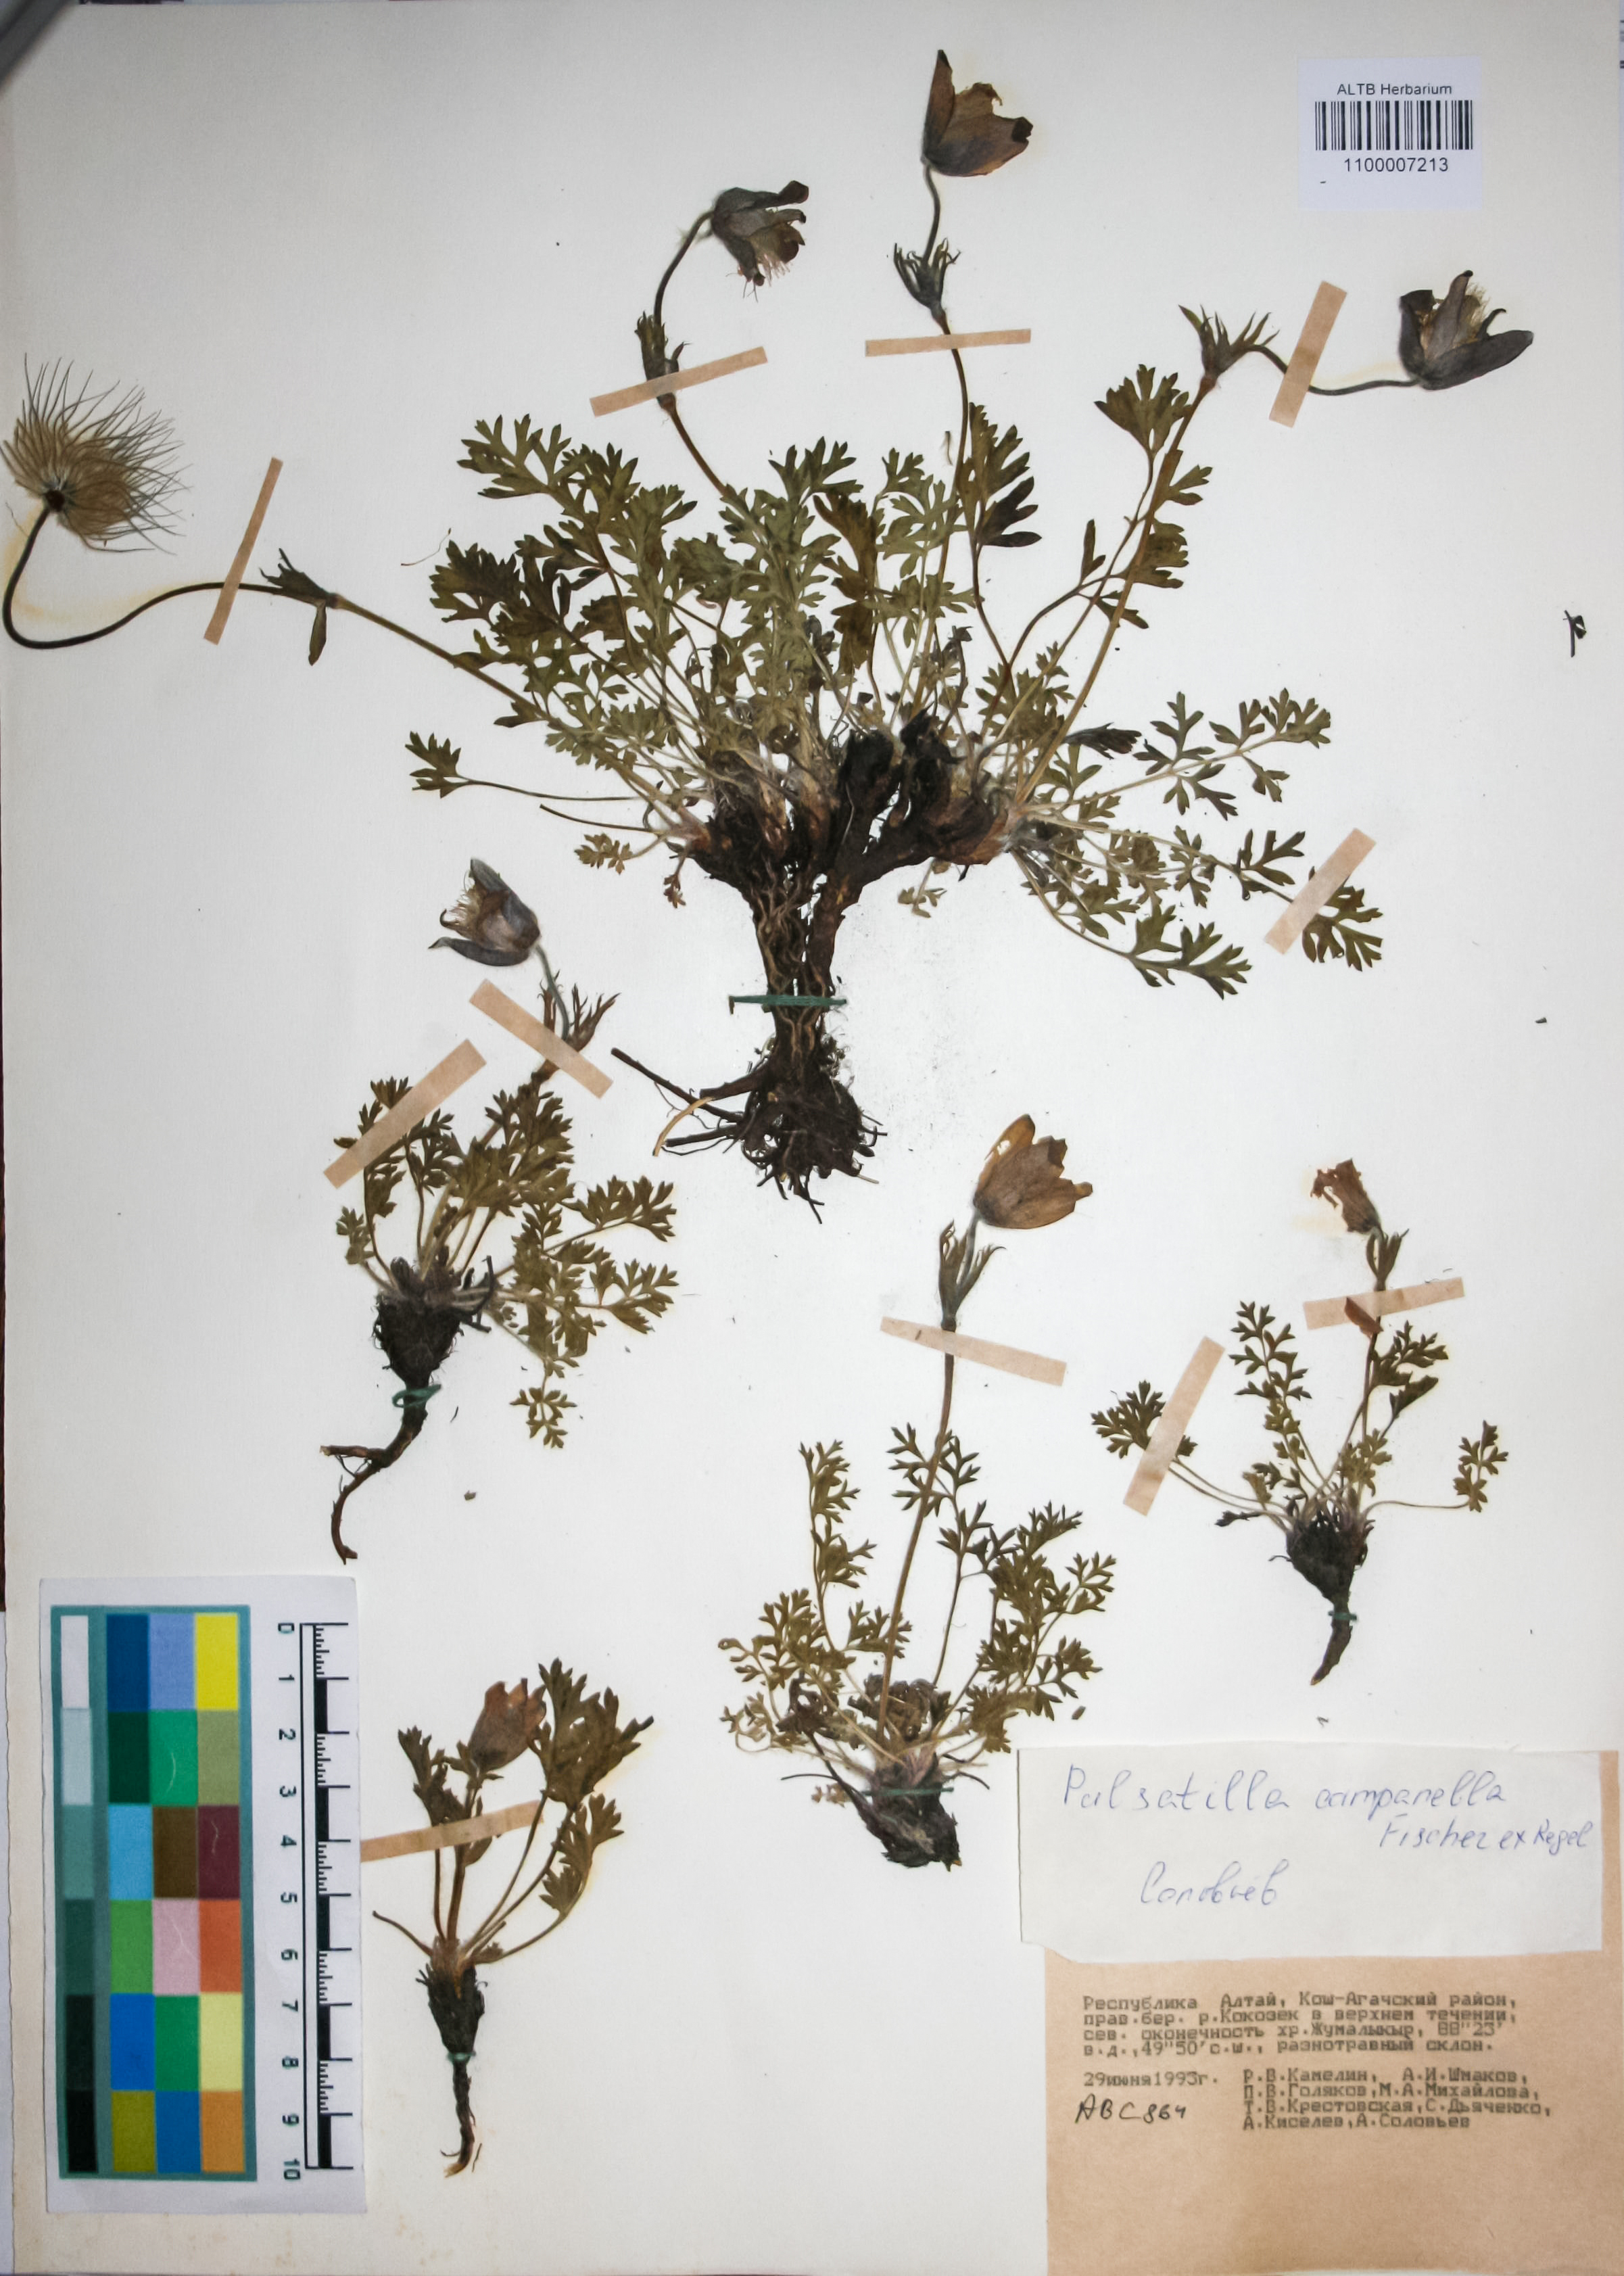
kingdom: Plantae
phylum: Tracheophyta
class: Magnoliopsida
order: Ranunculales
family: Ranunculaceae
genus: Pulsatilla
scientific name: Pulsatilla campanella
